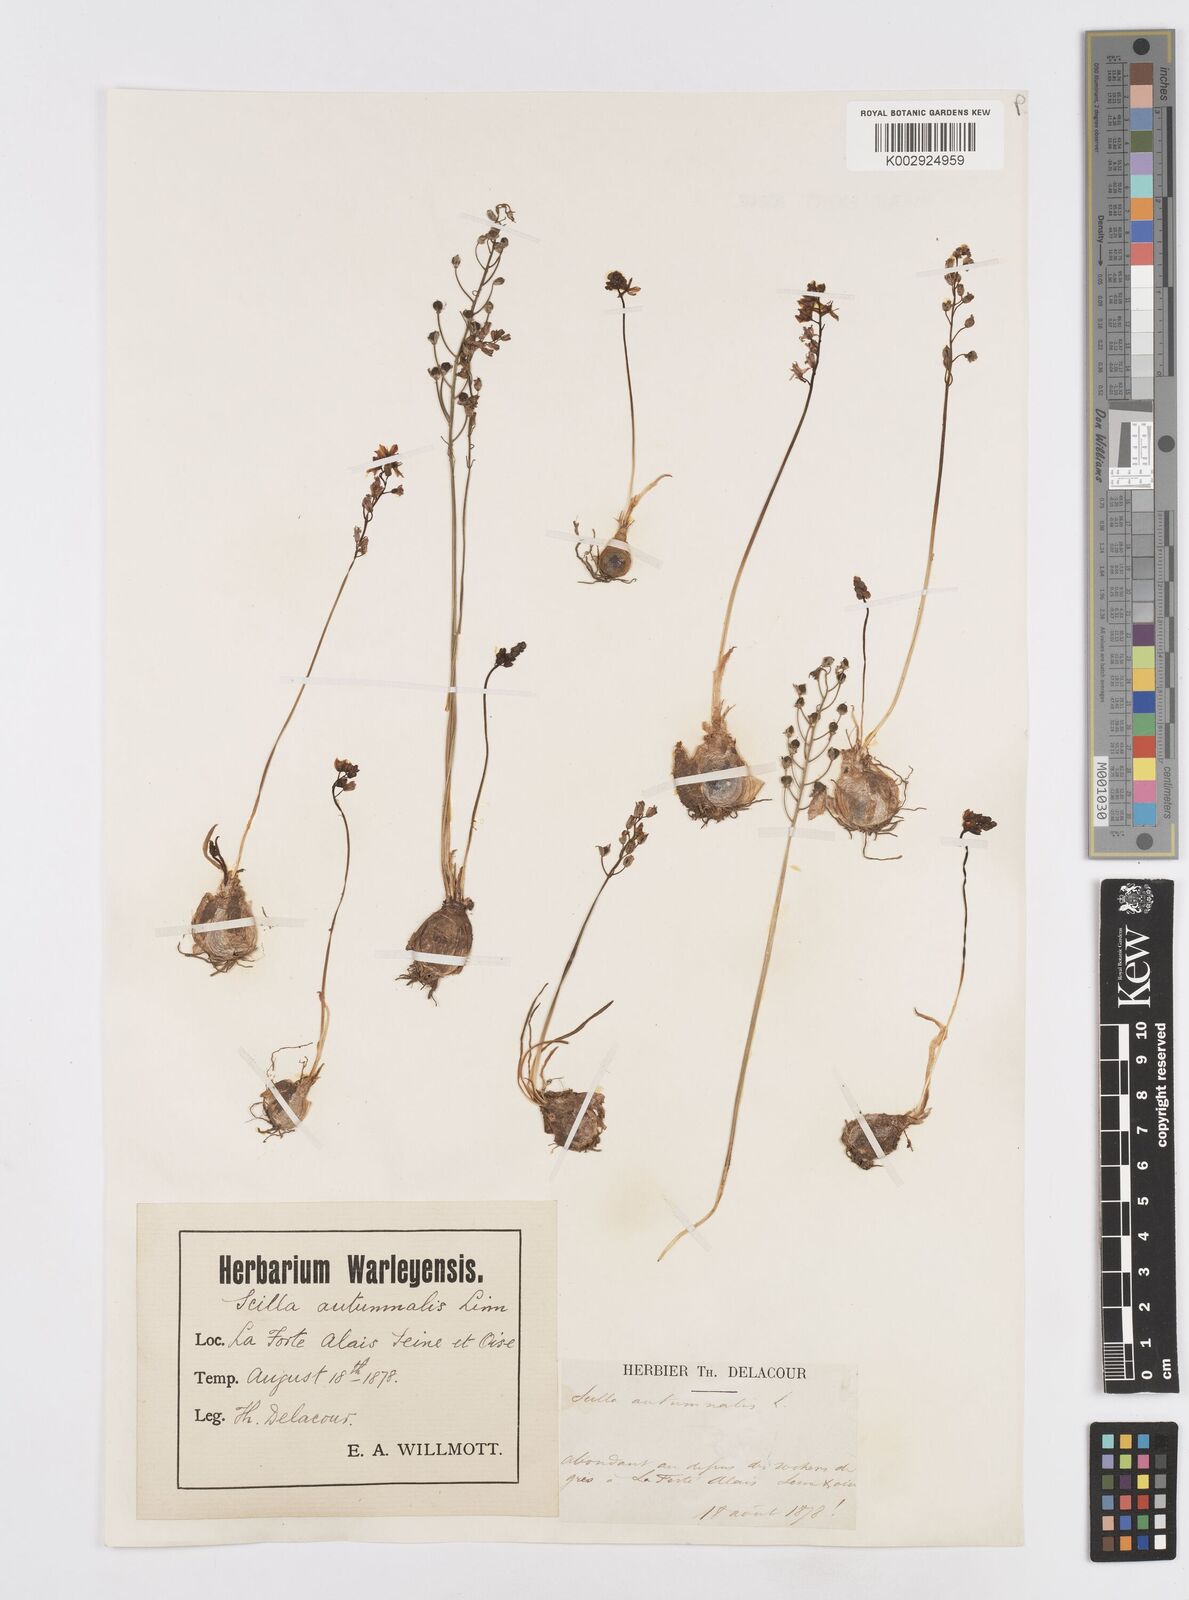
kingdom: Plantae
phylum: Tracheophyta
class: Liliopsida
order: Asparagales
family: Asparagaceae
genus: Prospero
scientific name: Prospero autumnale
